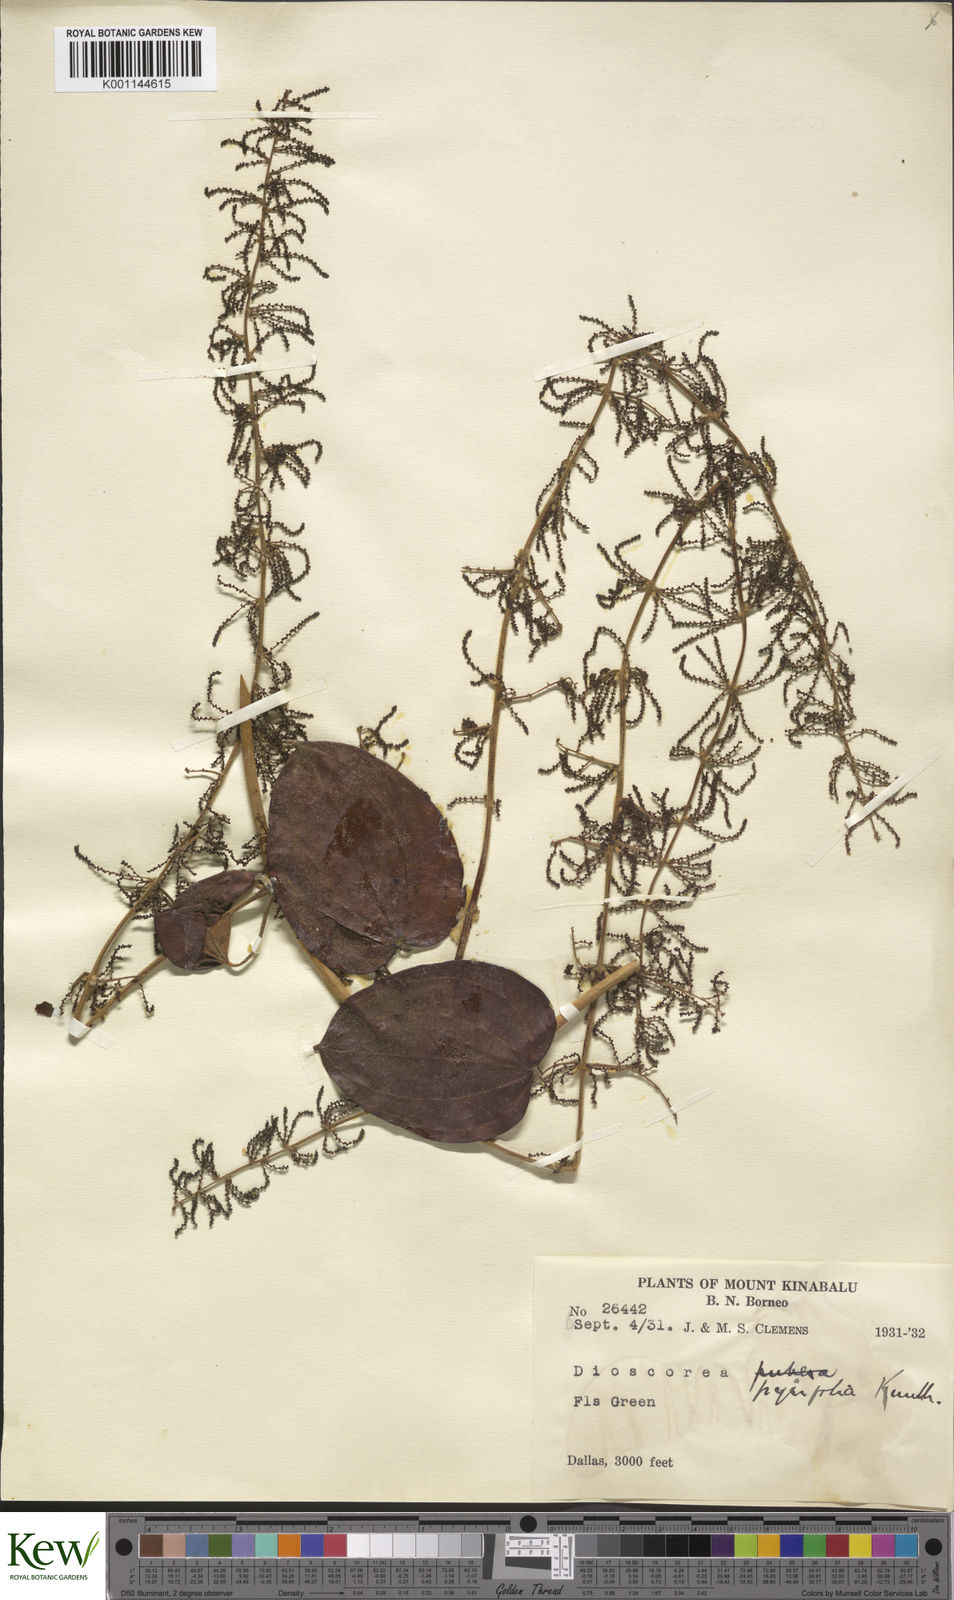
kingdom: Plantae
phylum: Tracheophyta
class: Liliopsida
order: Dioscoreales
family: Dioscoreaceae
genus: Dioscorea
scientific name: Dioscorea pyrifolia
